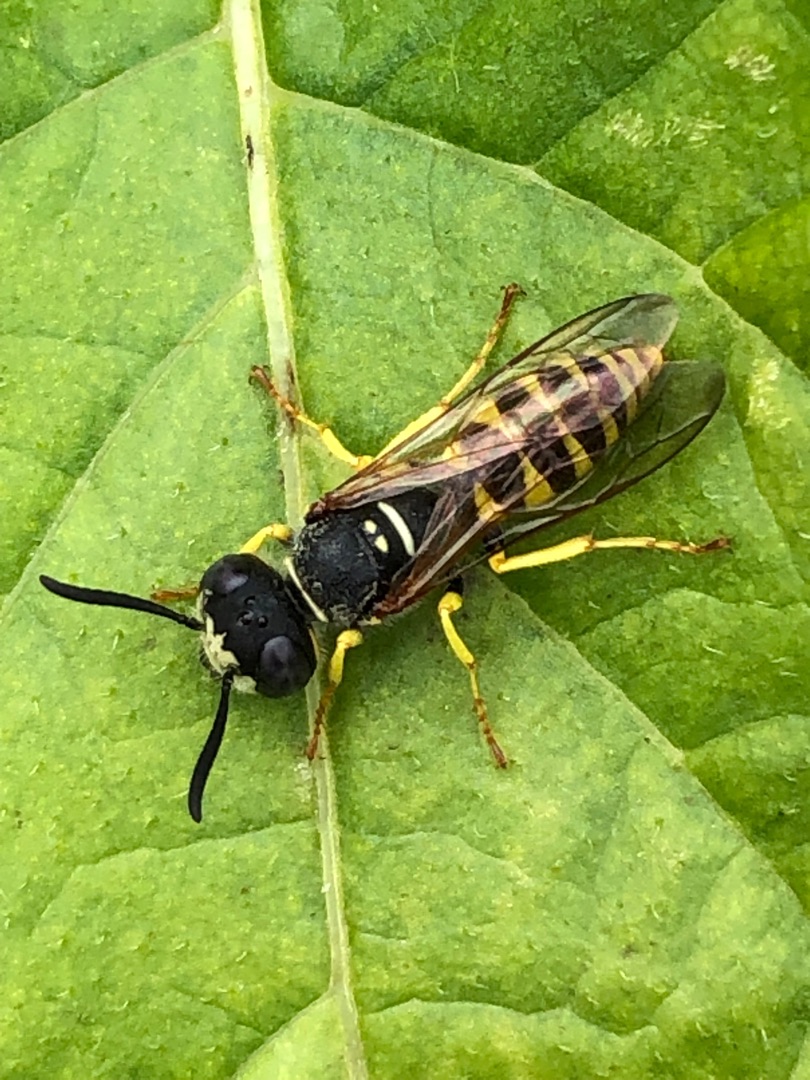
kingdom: Animalia
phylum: Arthropoda
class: Insecta
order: Hymenoptera
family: Crabronidae
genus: Philanthus
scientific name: Philanthus triangulum
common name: Biulv
